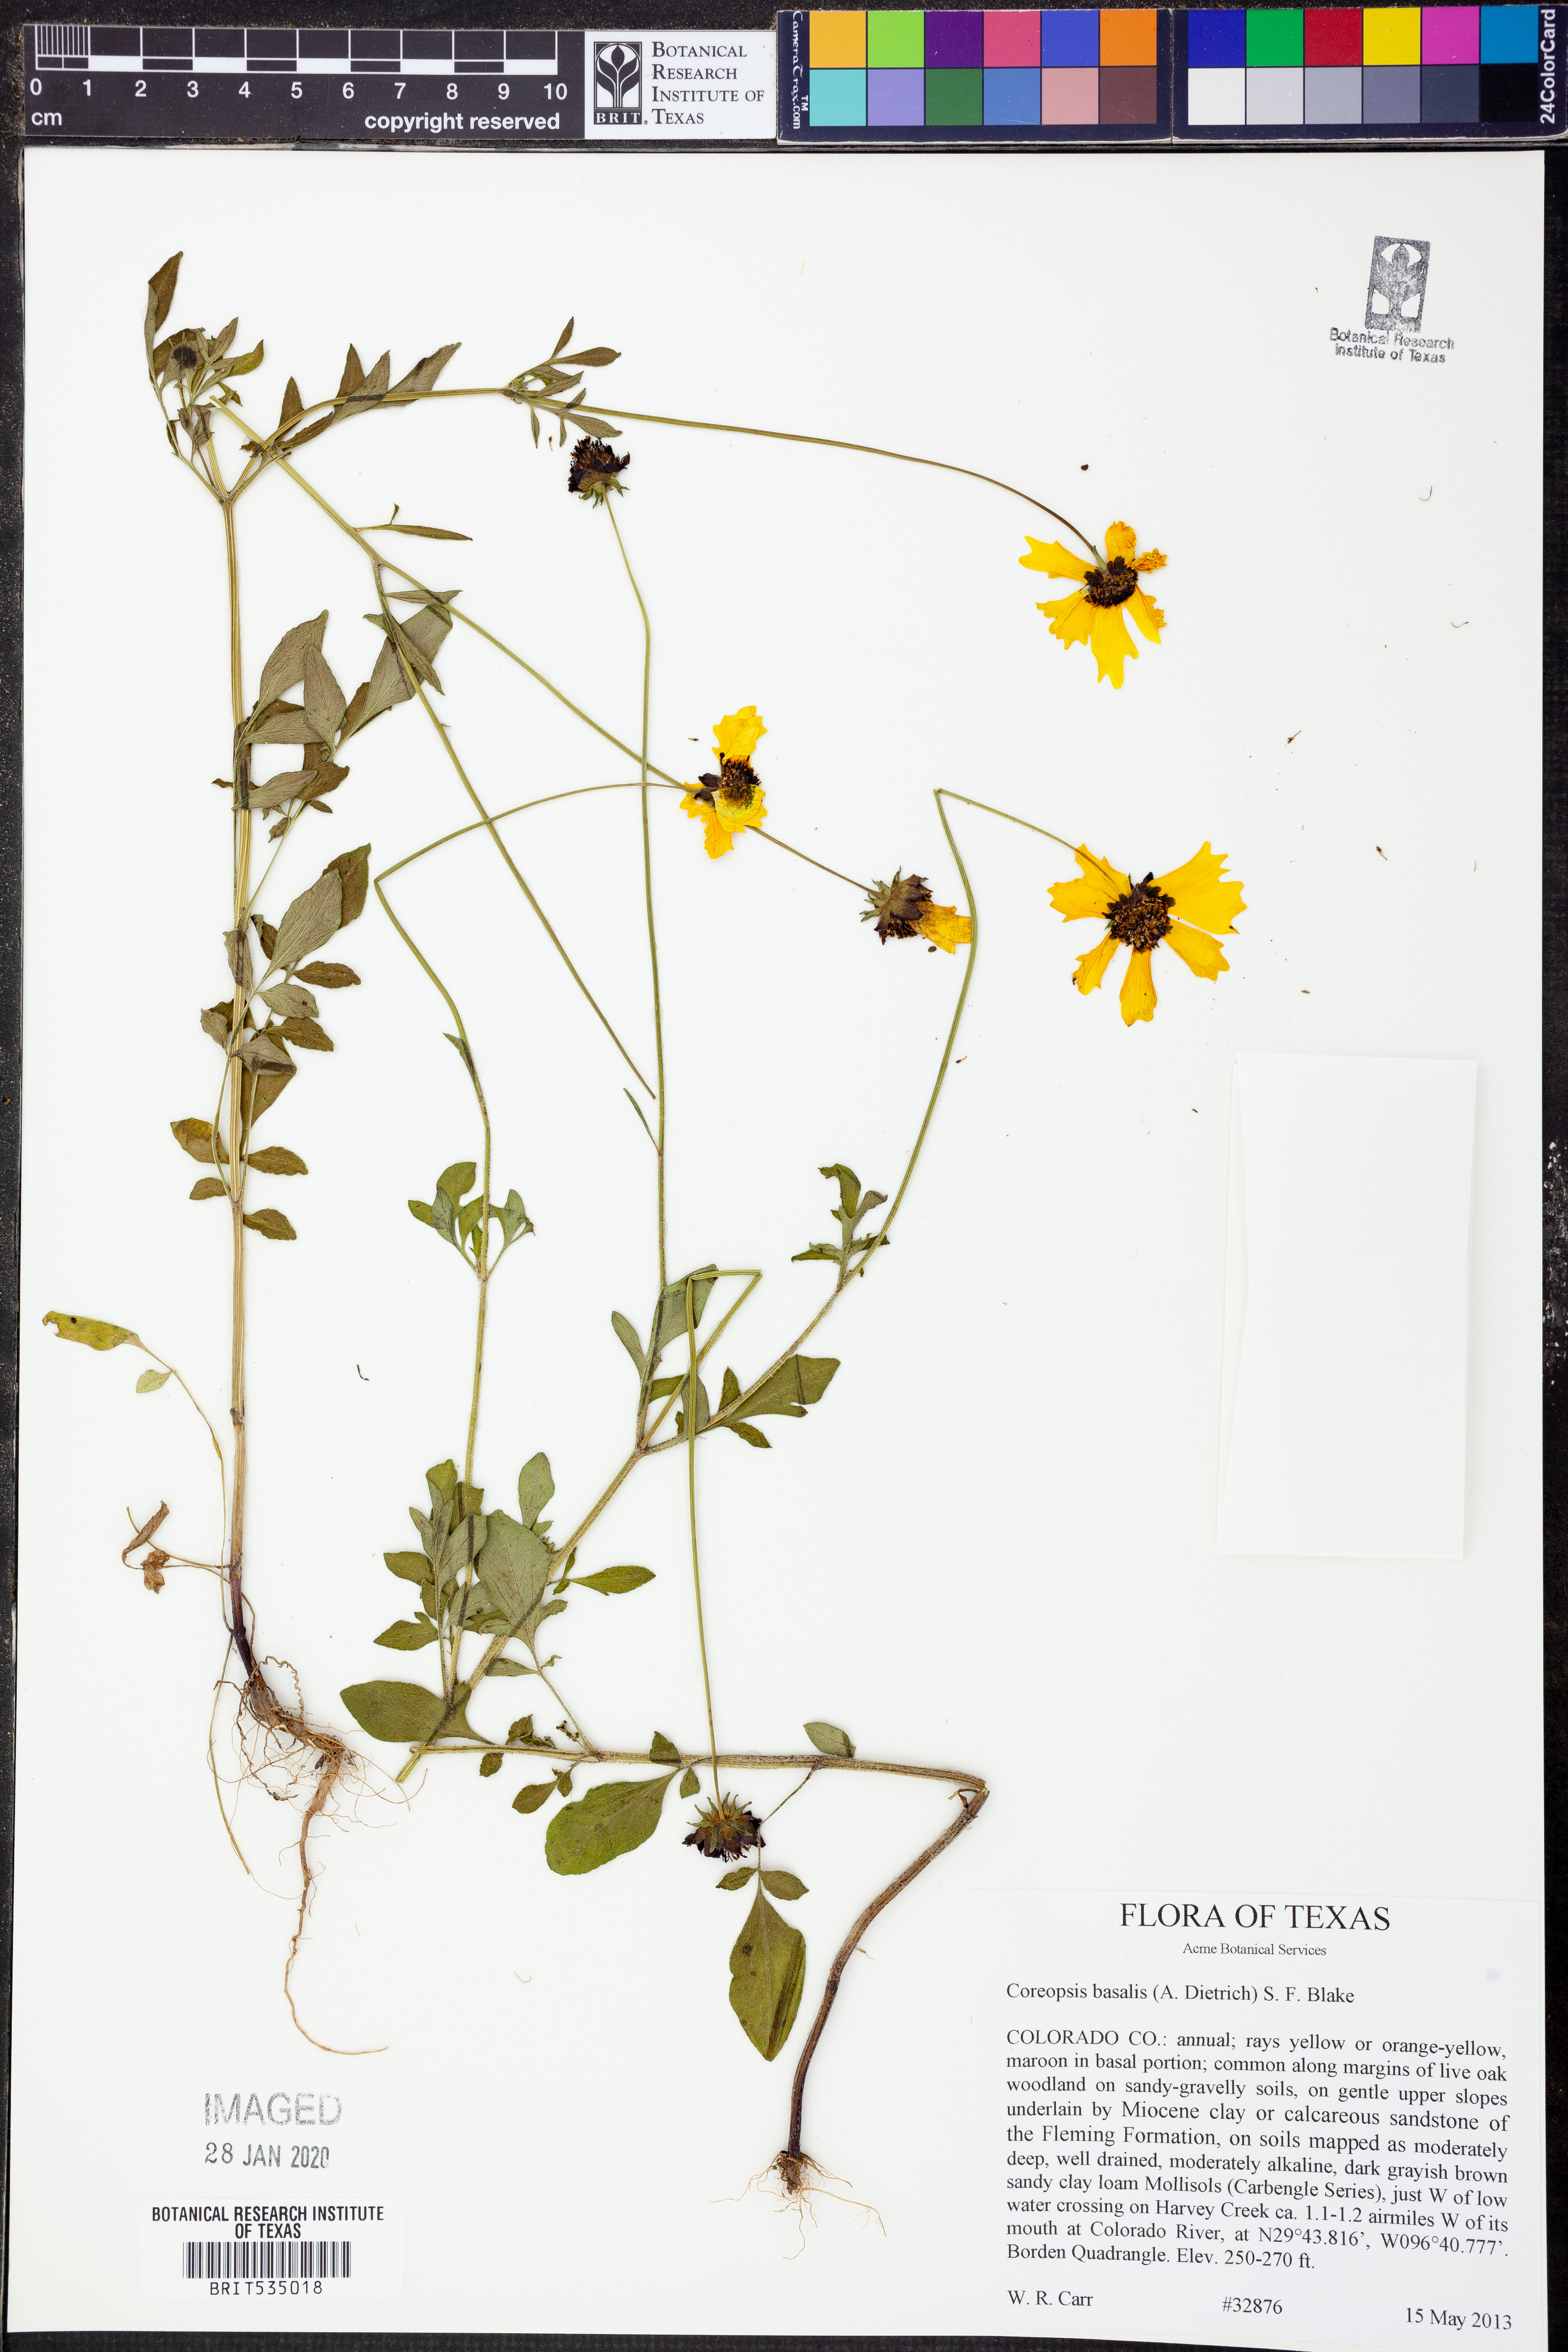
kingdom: Plantae
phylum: Tracheophyta
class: Magnoliopsida
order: Asterales
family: Asteraceae
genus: Coreopsis
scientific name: Coreopsis basalis
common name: Golden-mane coreopsis
